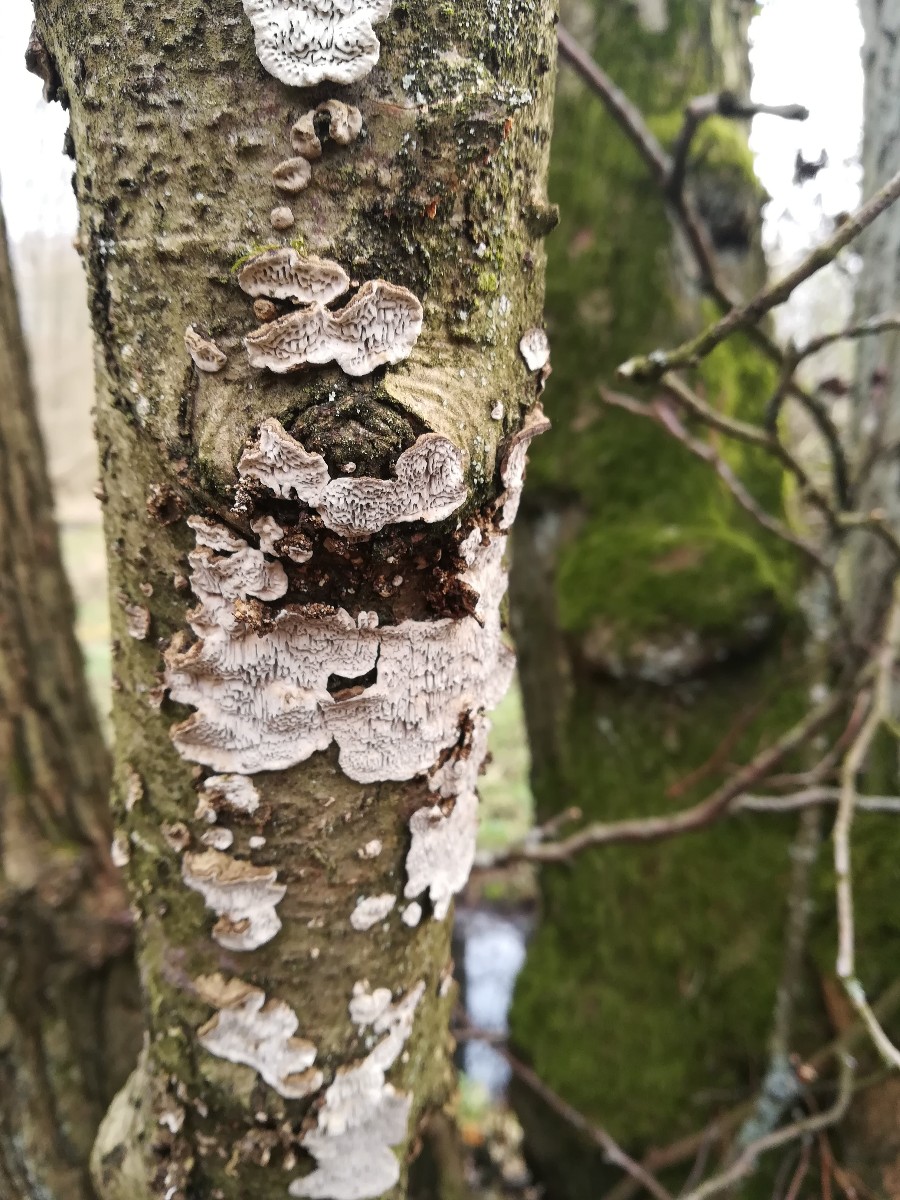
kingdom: Fungi
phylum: Basidiomycota
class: Agaricomycetes
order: Polyporales
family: Polyporaceae
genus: Podofomes
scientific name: Podofomes mollis
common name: blød begporesvamp
